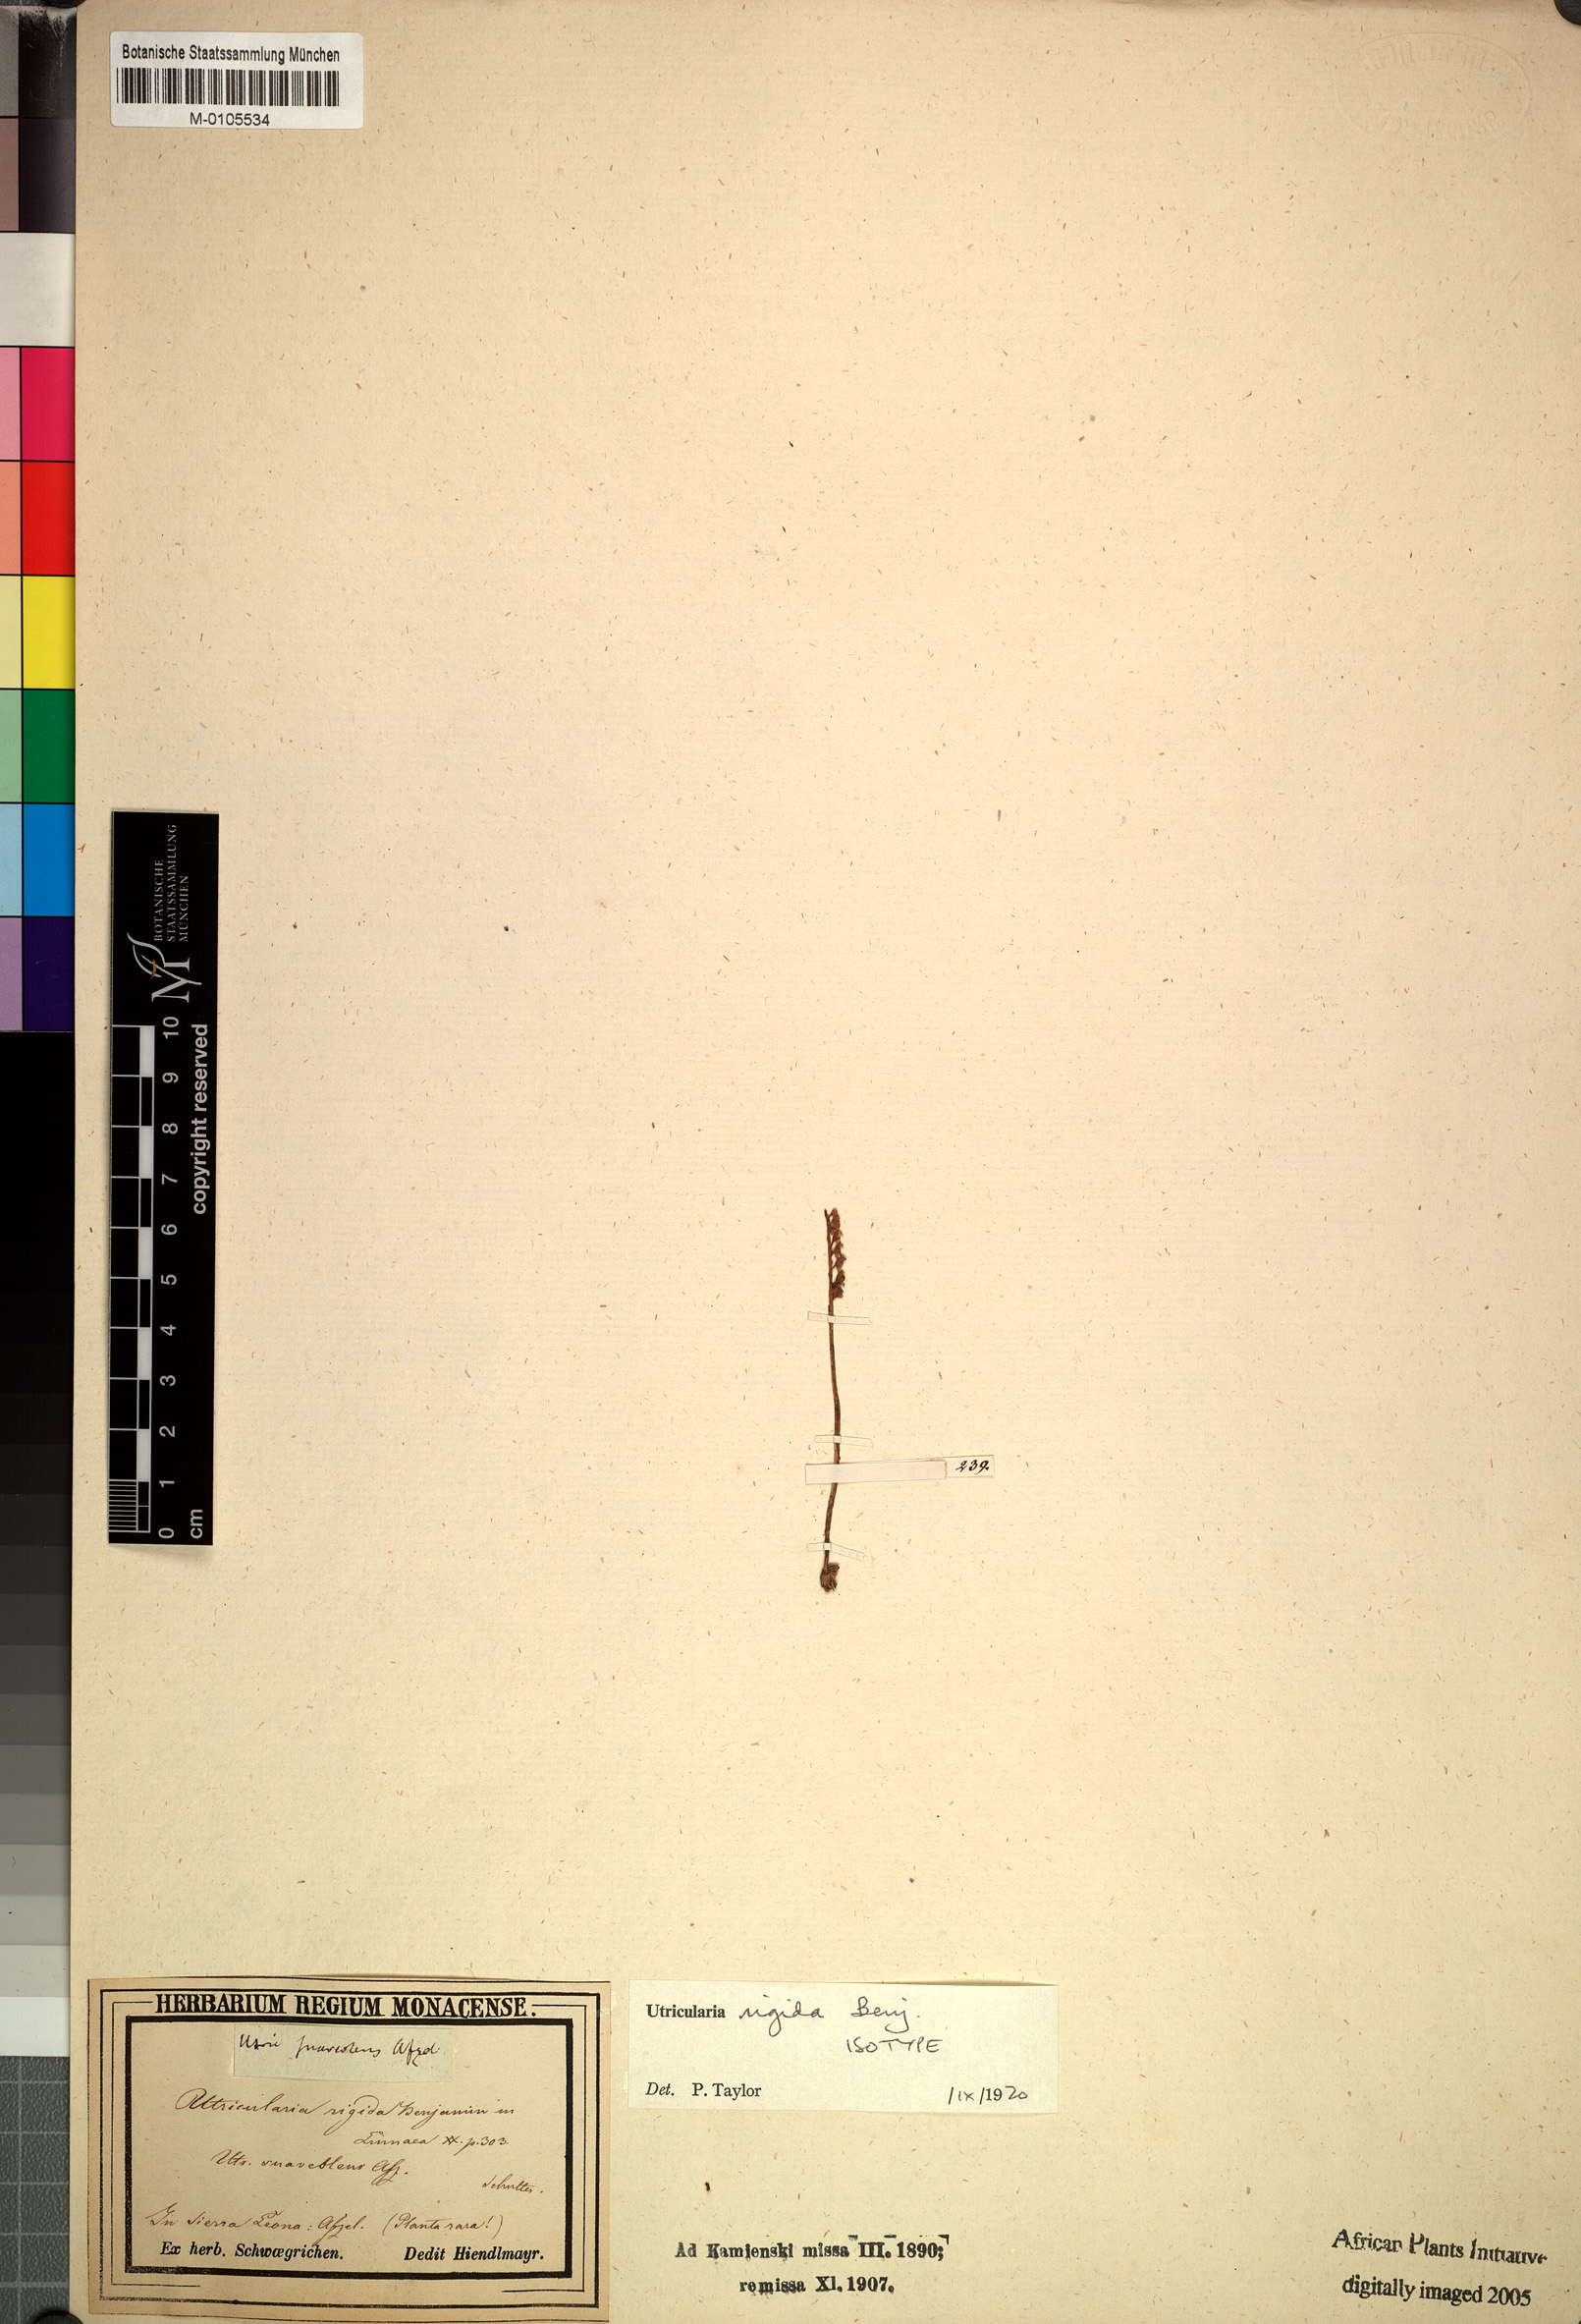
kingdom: Plantae
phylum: Tracheophyta
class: Magnoliopsida
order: Lamiales
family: Lentibulariaceae
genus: Utricularia
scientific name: Utricularia rigida
